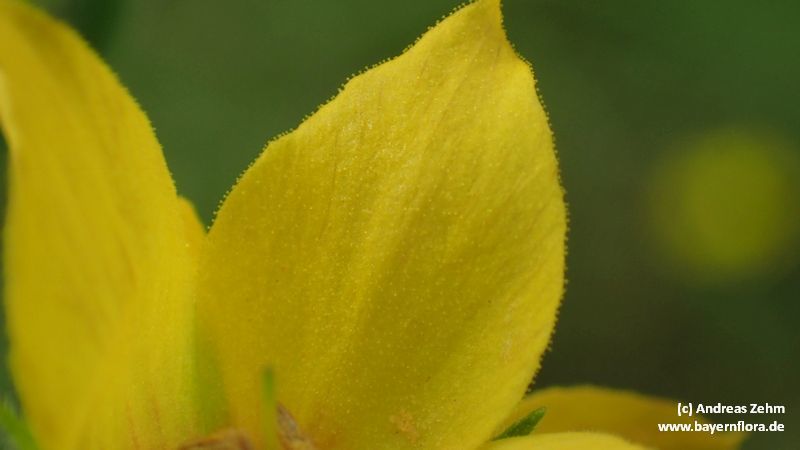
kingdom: Plantae
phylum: Tracheophyta
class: Magnoliopsida
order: Ericales
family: Primulaceae
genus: Lysimachia
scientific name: Lysimachia punctata
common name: Dotted loosestrife
